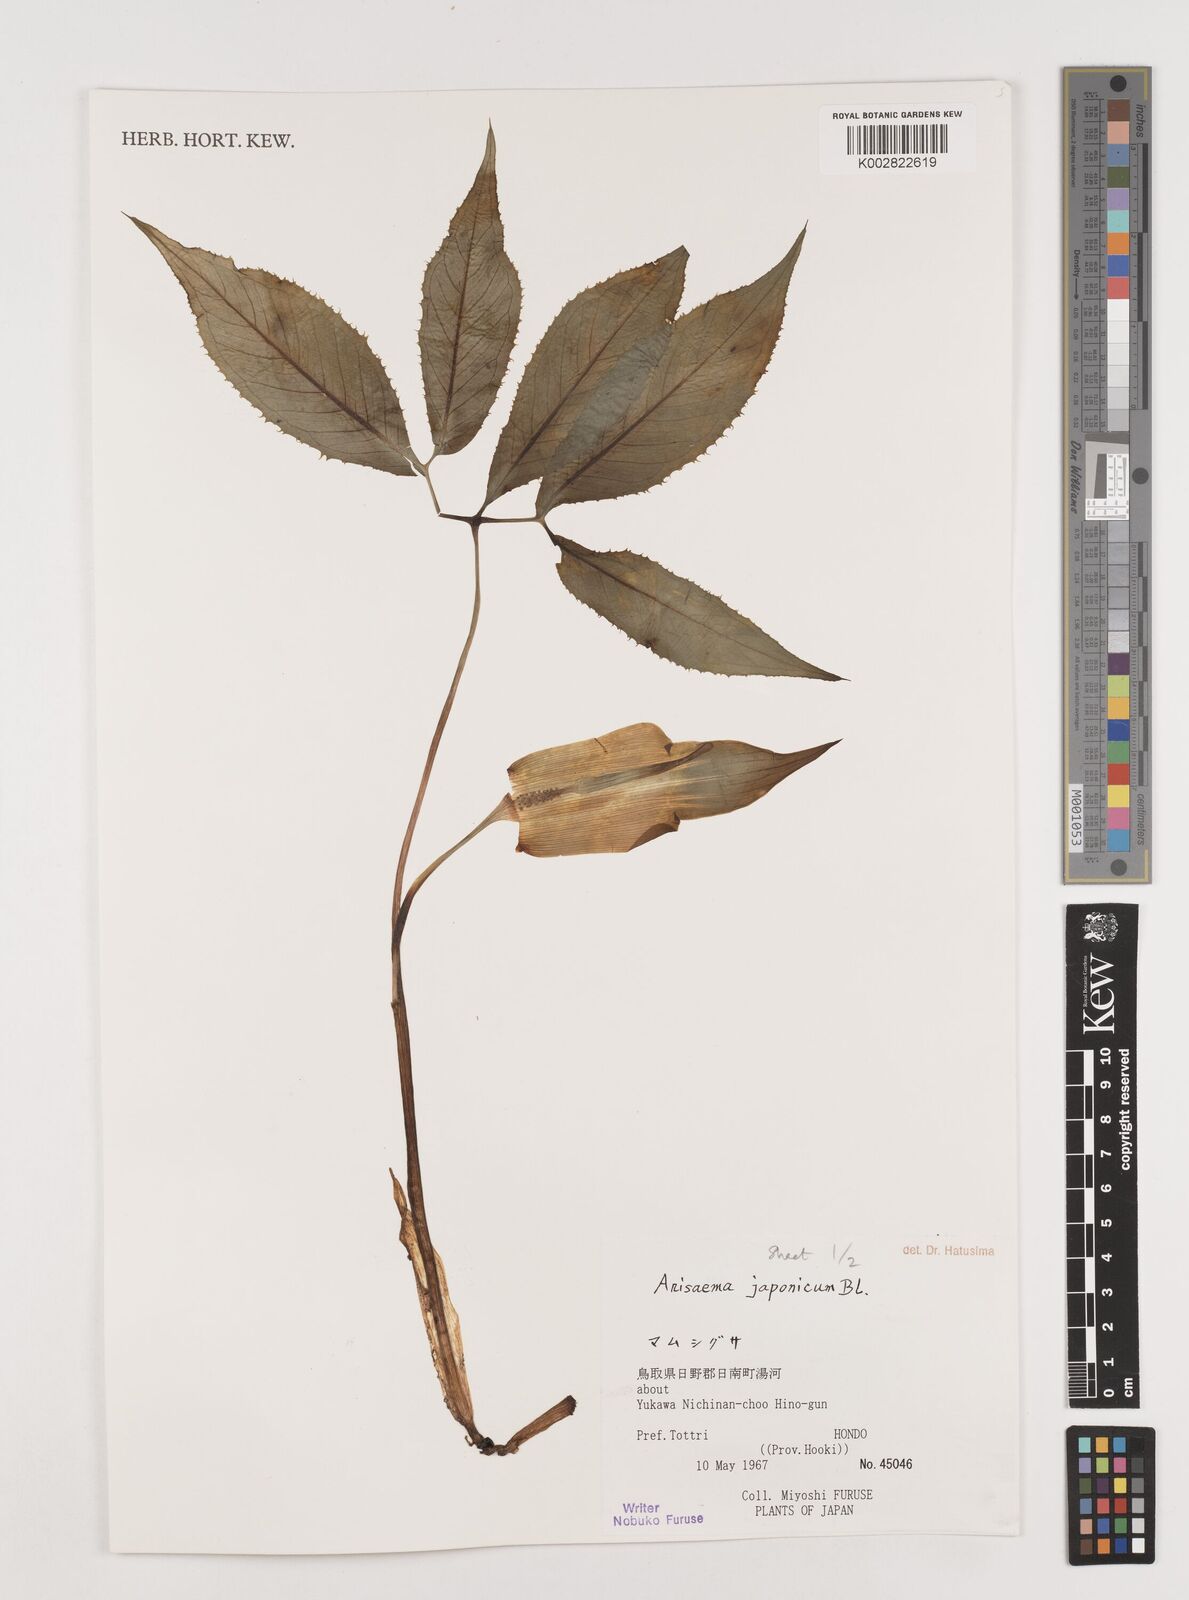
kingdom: Plantae
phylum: Tracheophyta
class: Liliopsida
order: Alismatales
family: Araceae
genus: Arisaema
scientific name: Arisaema serratum
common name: Japanese arisaema
